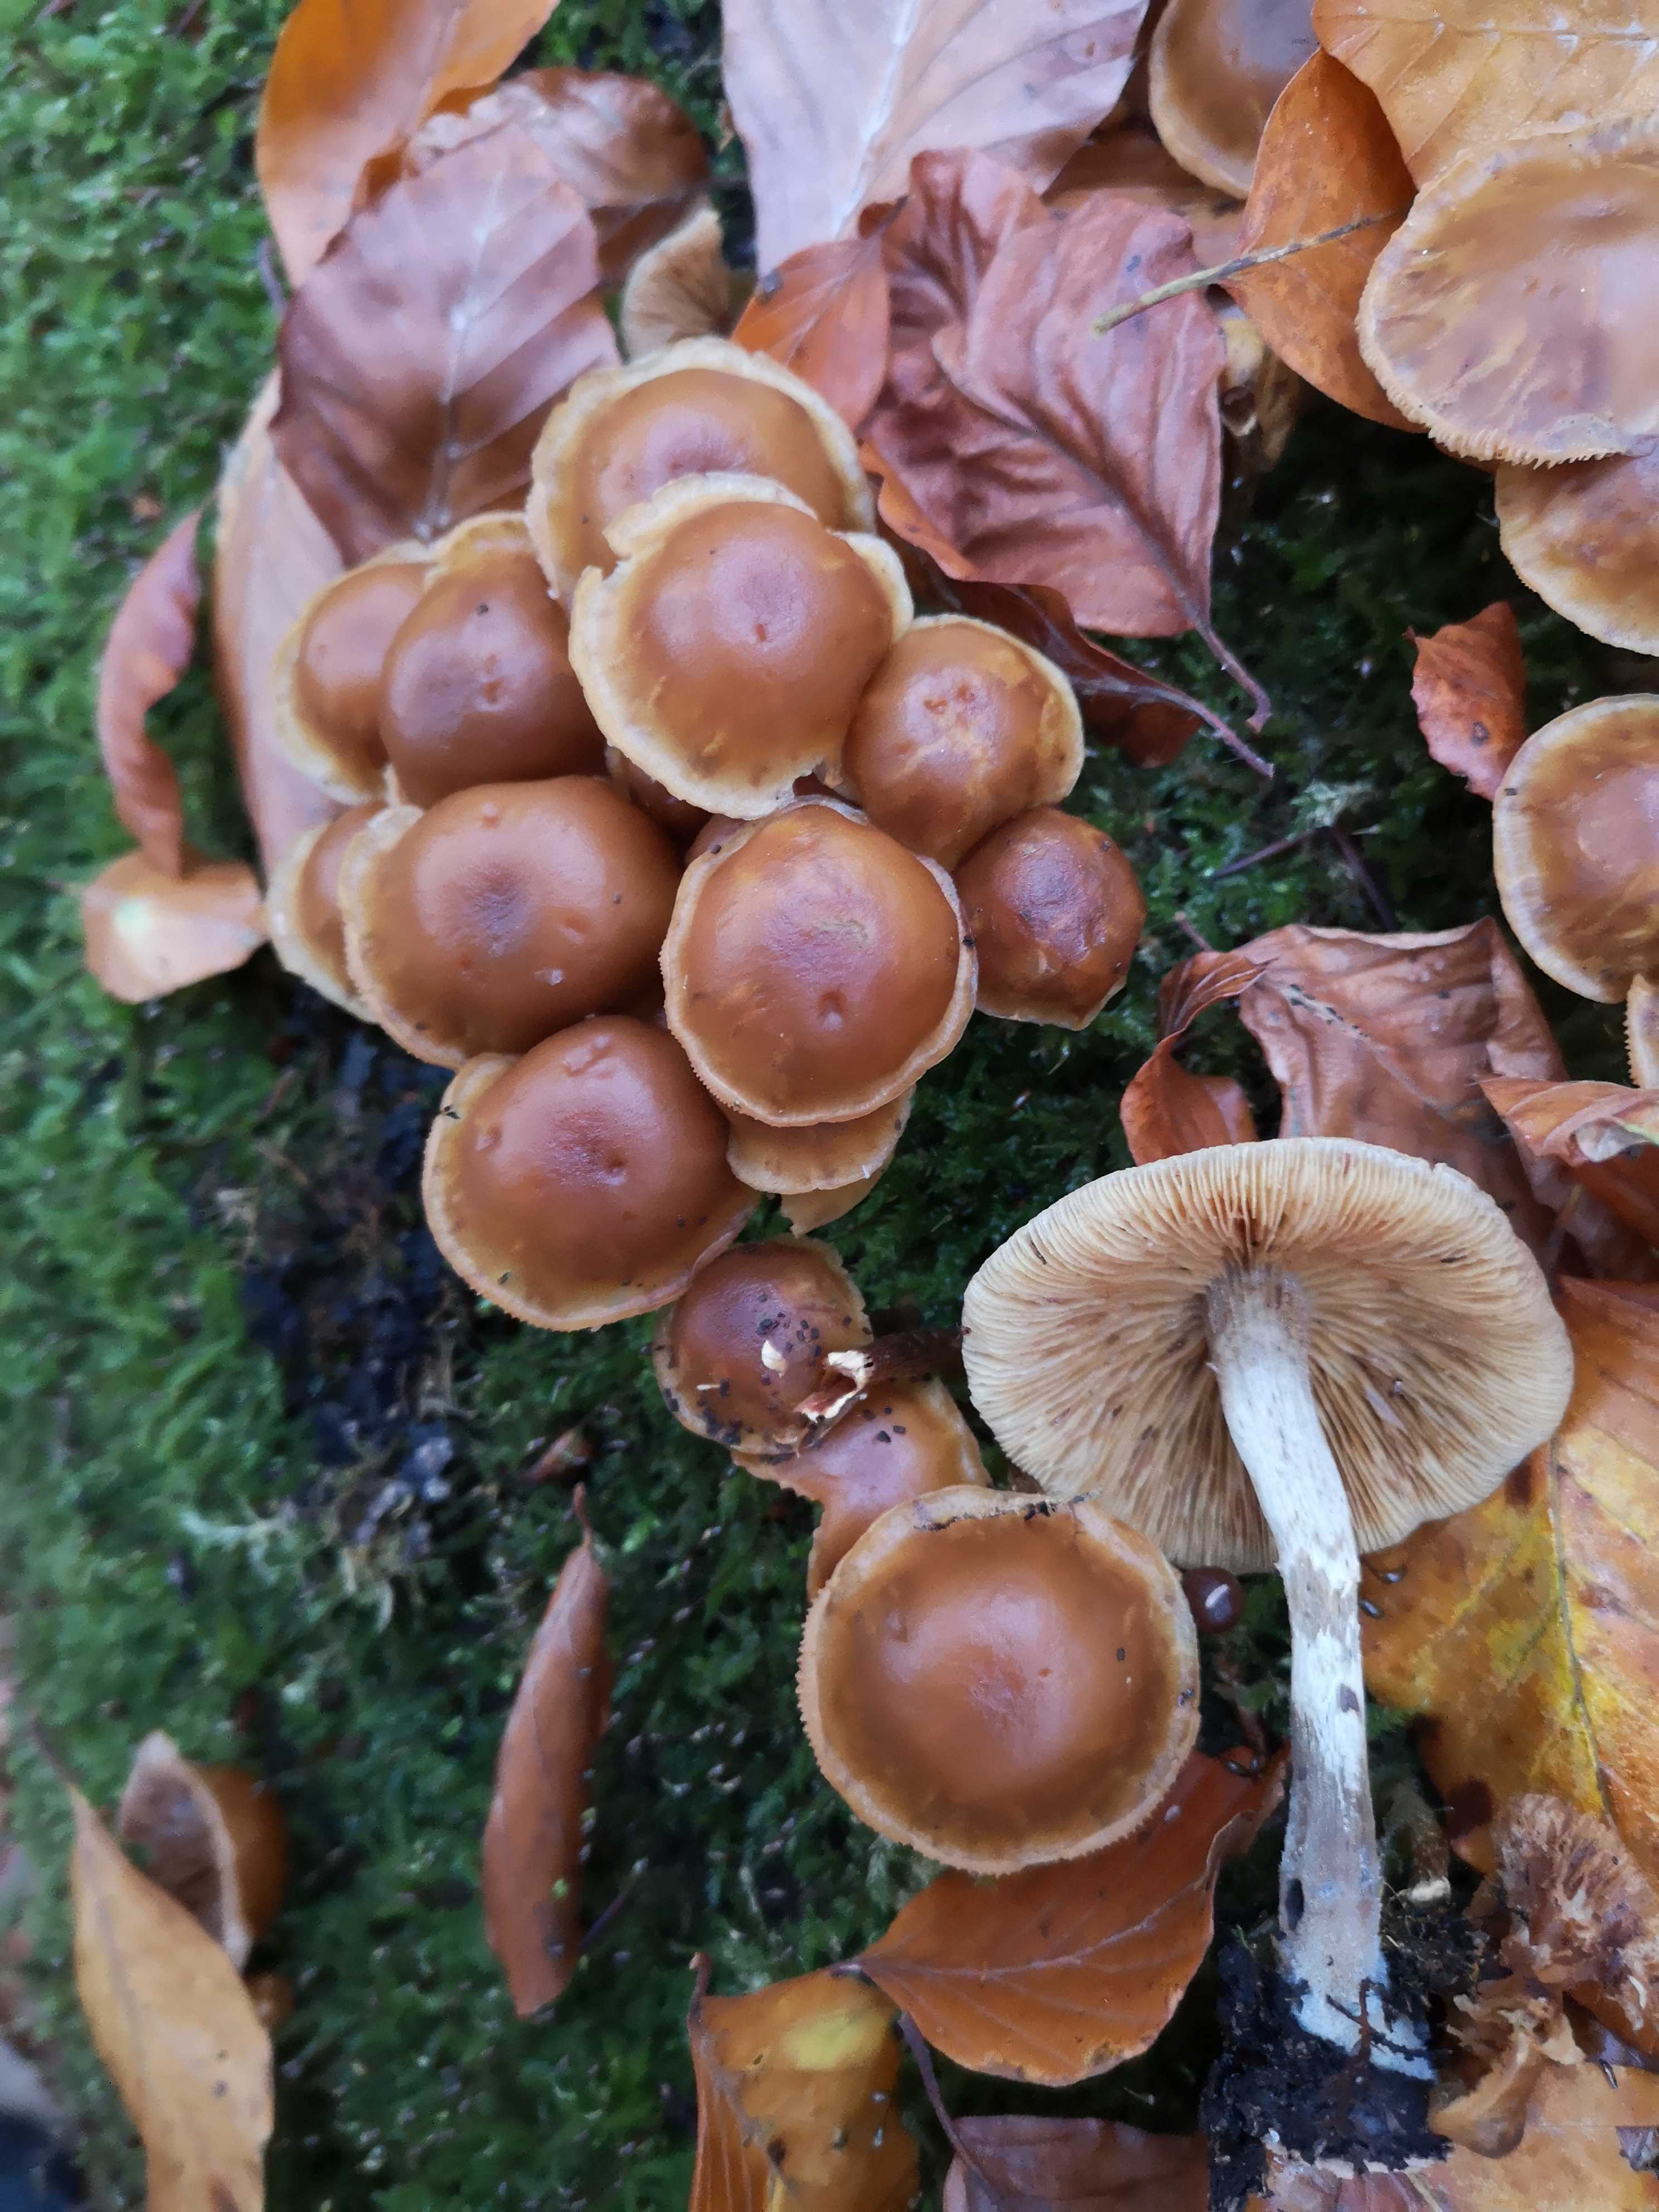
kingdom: Fungi
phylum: Basidiomycota
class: Agaricomycetes
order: Agaricales
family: Hymenogastraceae
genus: Galerina
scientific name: Galerina marginata
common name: randbæltet hjelmhat
